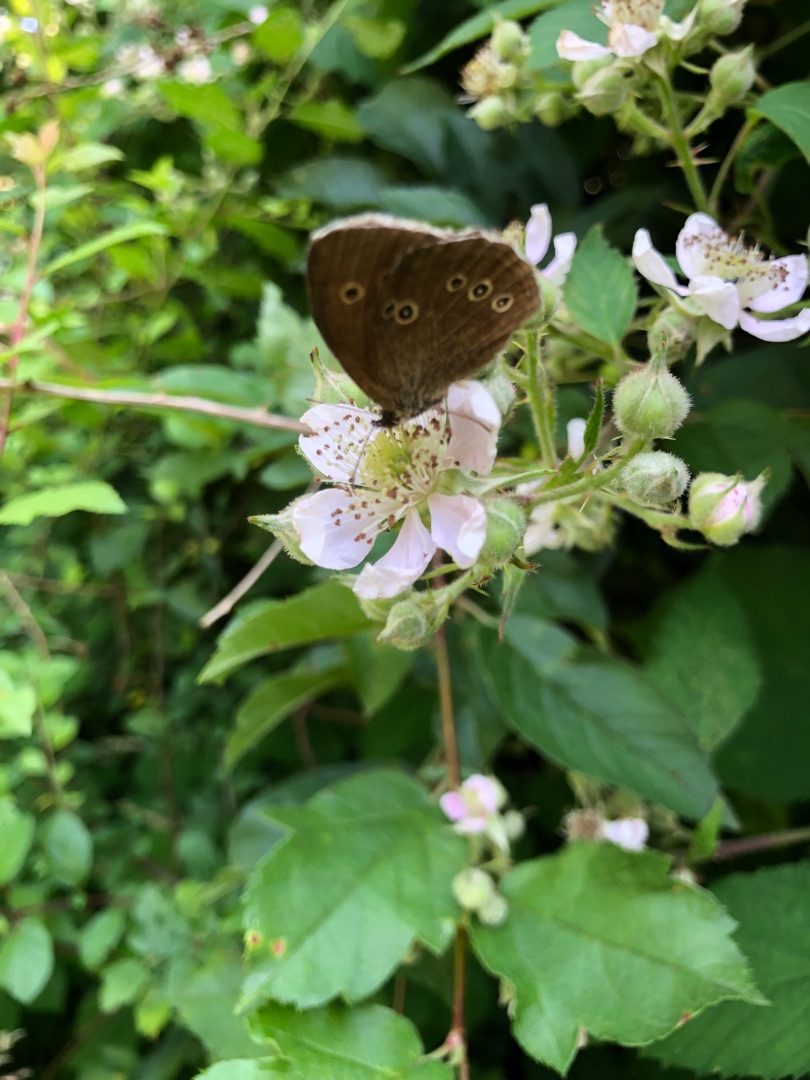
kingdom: Animalia
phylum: Arthropoda
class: Insecta
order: Lepidoptera
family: Nymphalidae
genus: Aphantopus
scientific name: Aphantopus hyperantus
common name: Engrandøje
